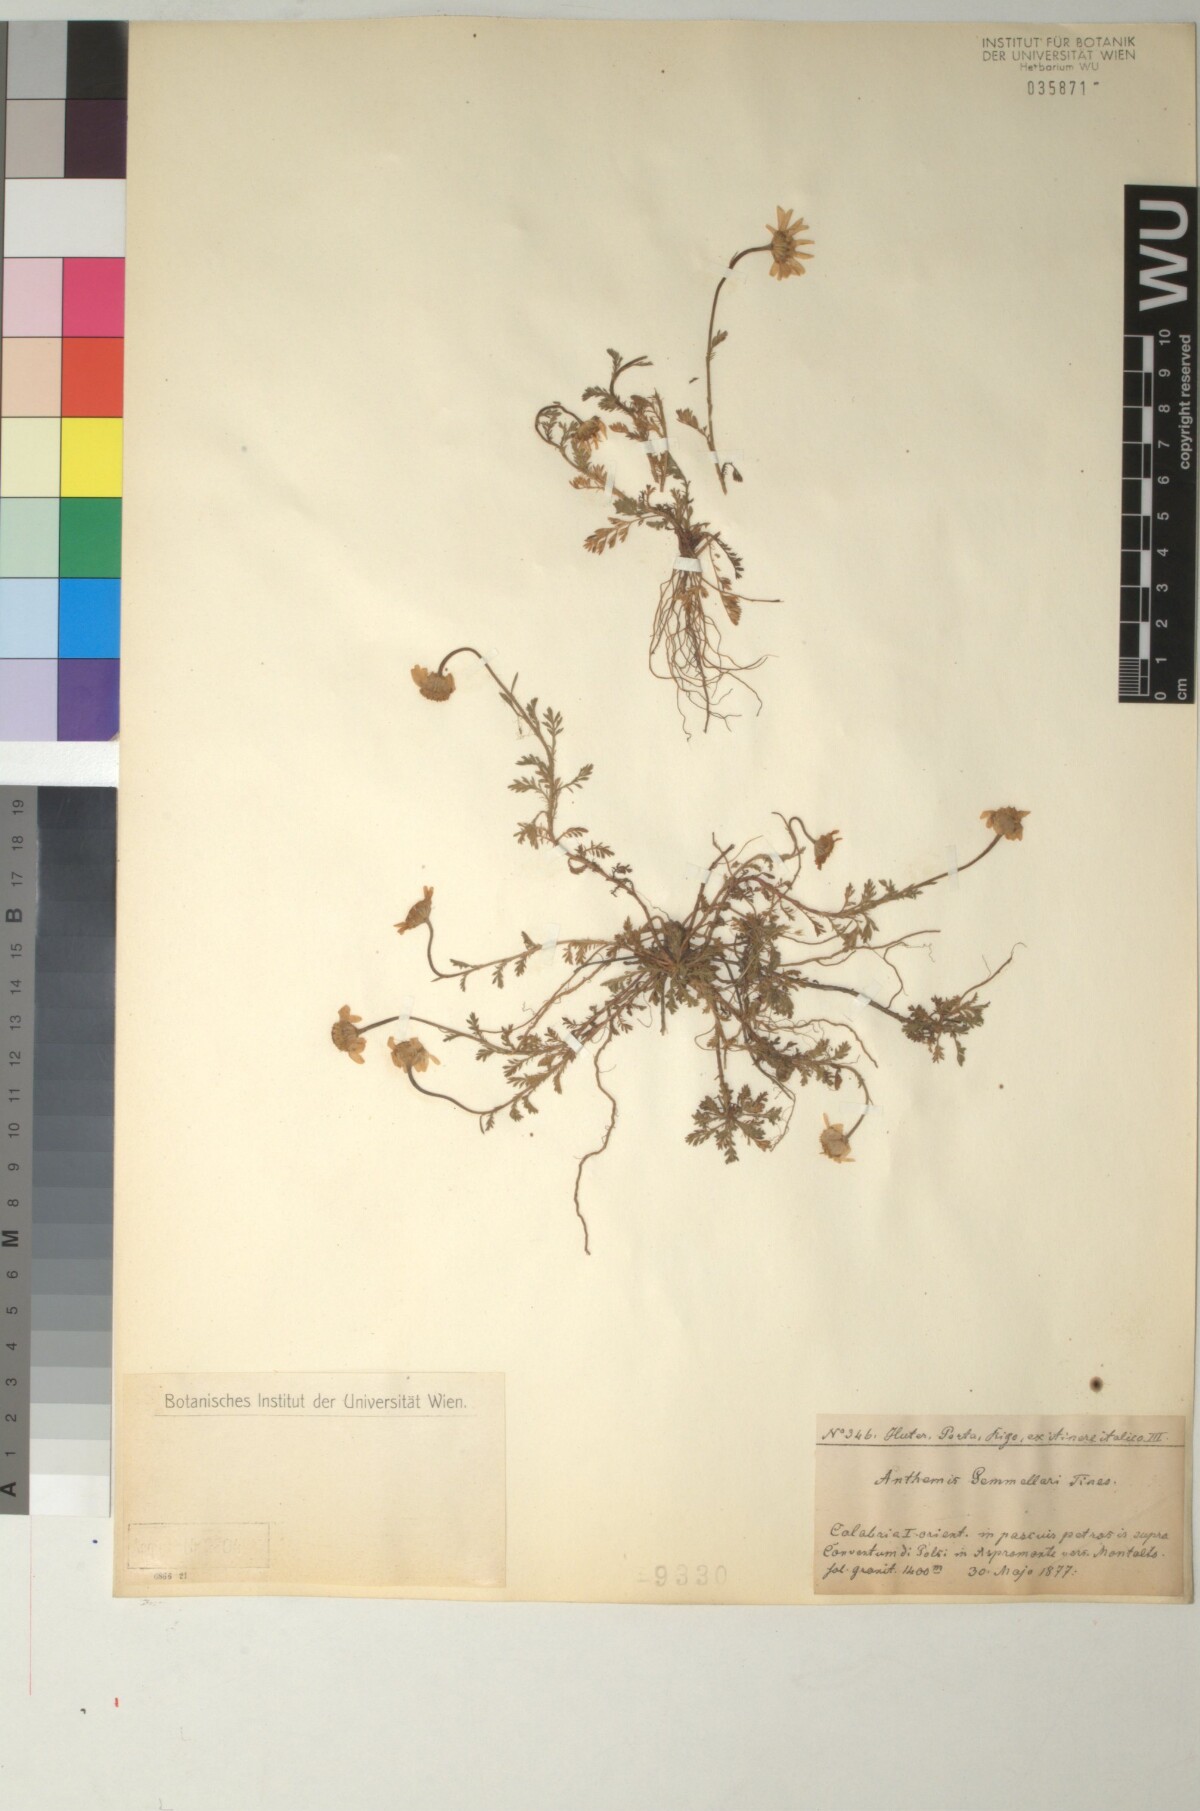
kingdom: Plantae
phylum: Tracheophyta
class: Magnoliopsida
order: Asterales
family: Asteraceae
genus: Anthemis
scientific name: Anthemis arvensis
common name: Corn chamomile
